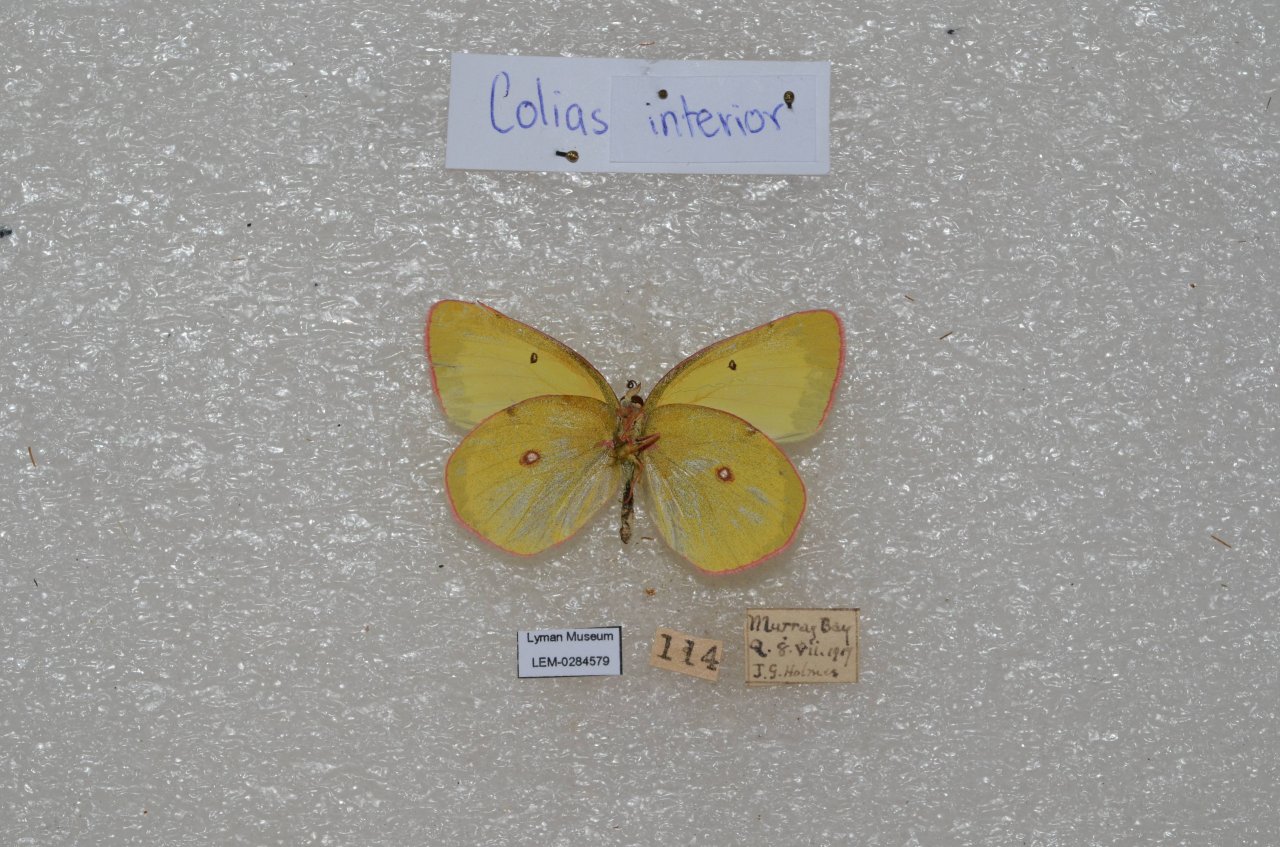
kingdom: Animalia
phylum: Arthropoda
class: Insecta
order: Lepidoptera
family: Pieridae
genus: Colias
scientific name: Colias interior
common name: Pink-edged Sulphur
